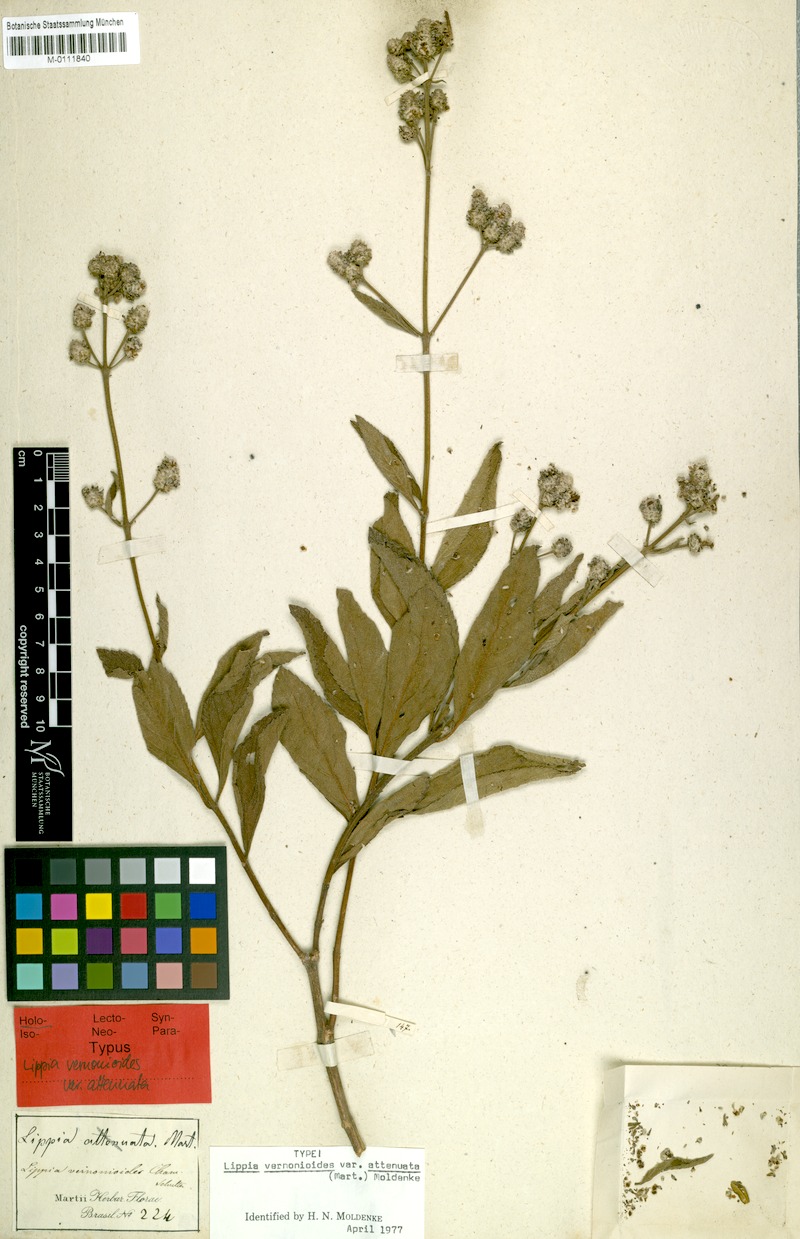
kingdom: Plantae
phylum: Tracheophyta
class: Magnoliopsida
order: Lamiales
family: Verbenaceae
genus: Lippia
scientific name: Lippia vernonioides
